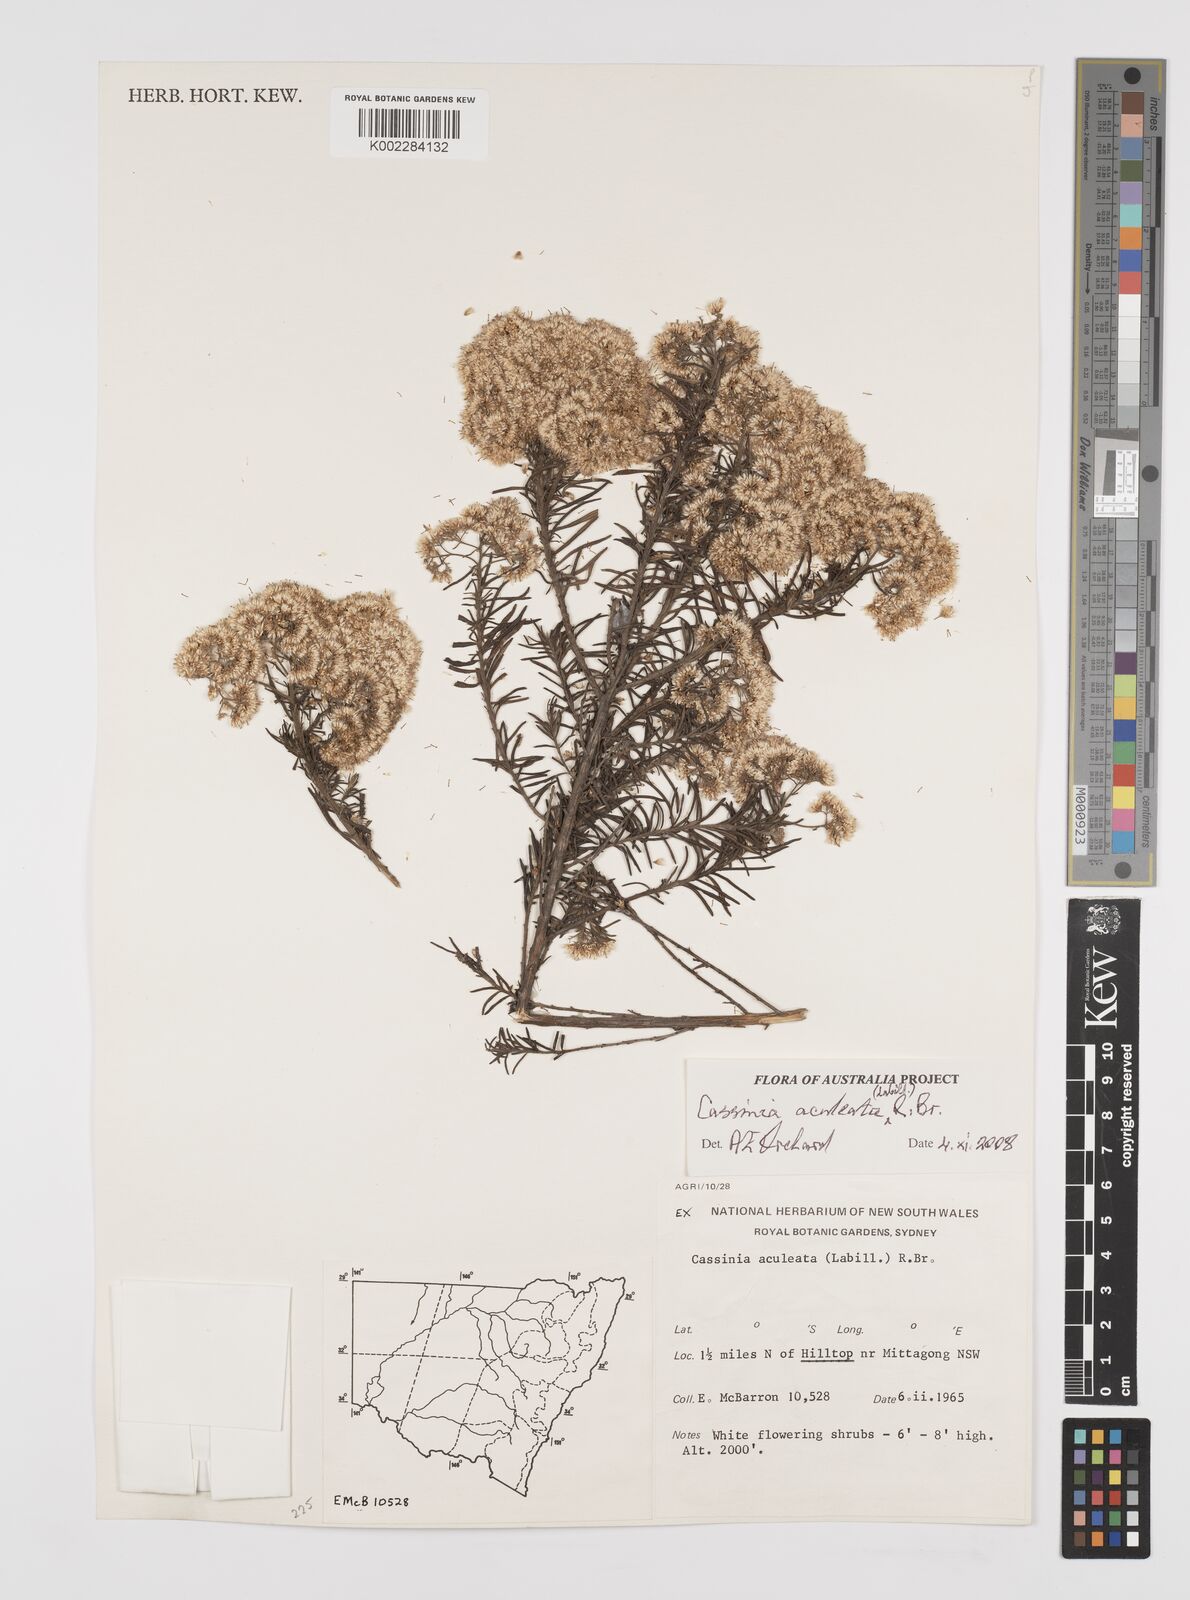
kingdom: Plantae
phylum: Tracheophyta
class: Magnoliopsida
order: Asterales
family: Asteraceae
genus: Cassinia
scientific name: Cassinia aculeata
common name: Australian tauhinu
